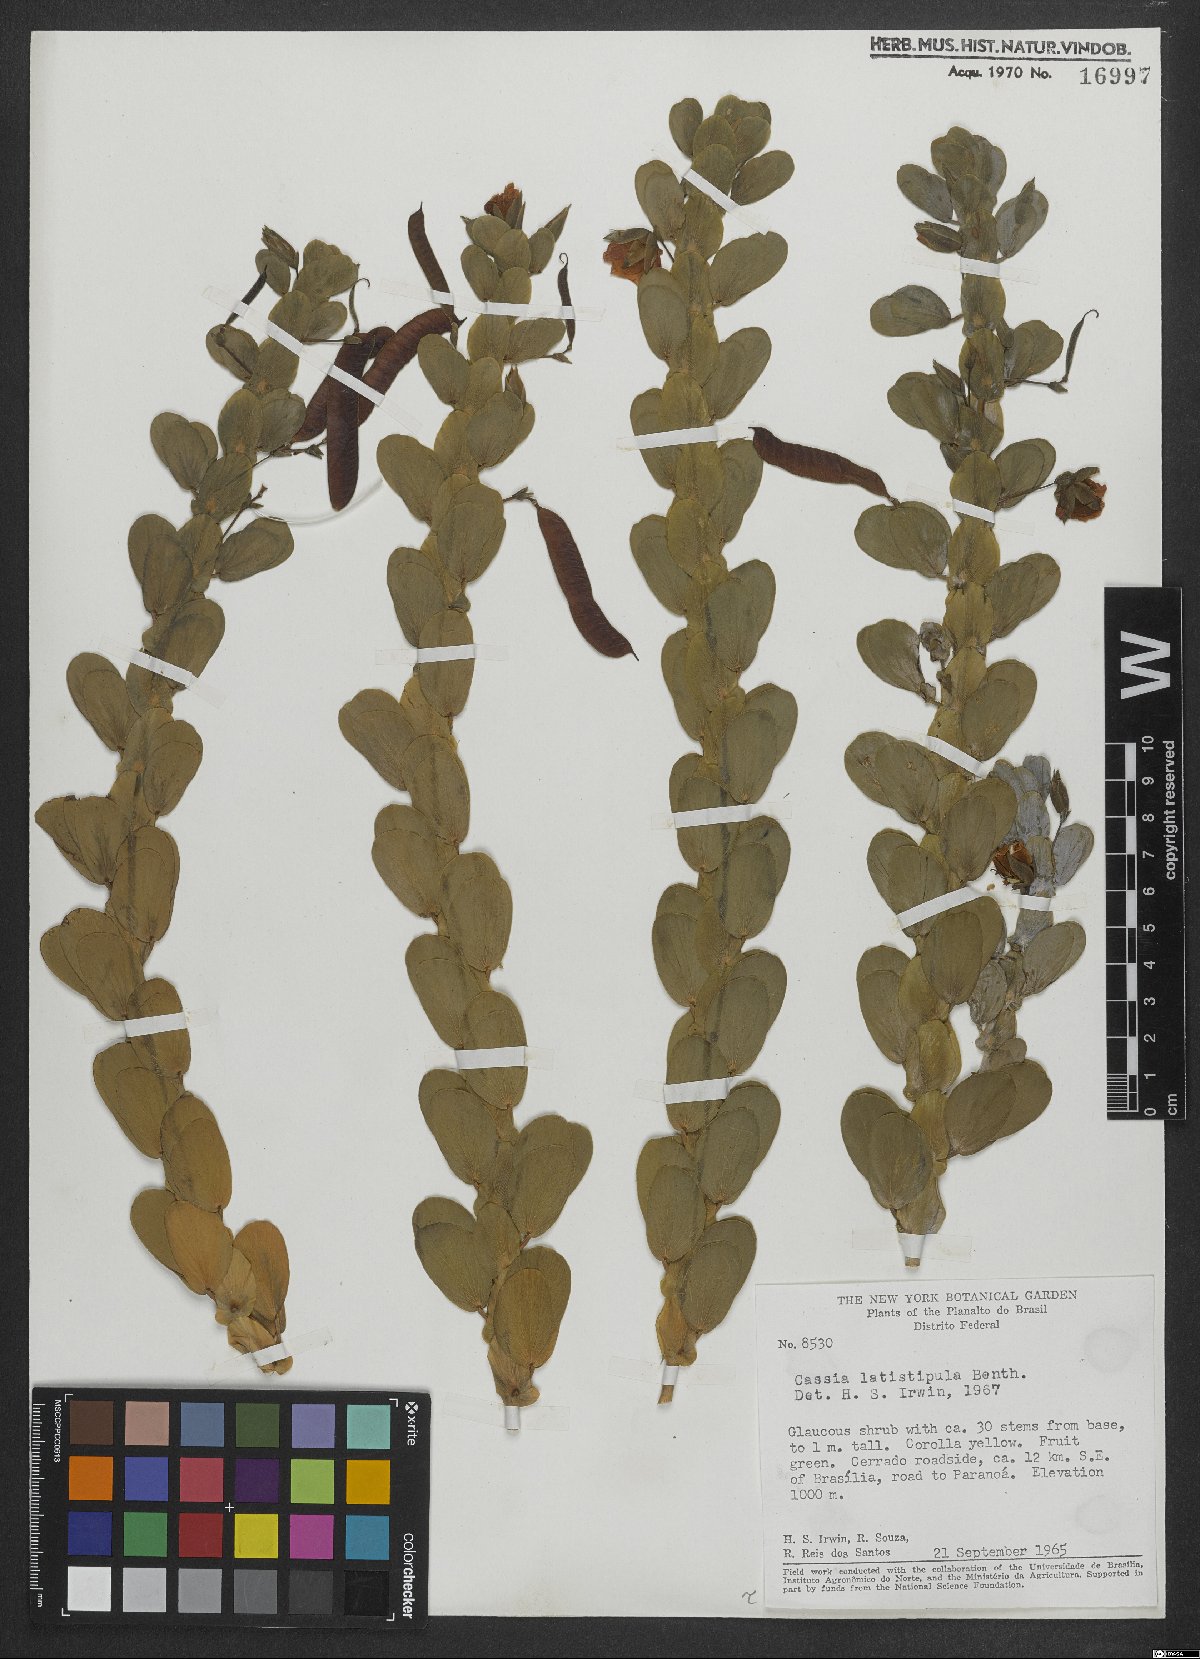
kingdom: Plantae
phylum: Tracheophyta
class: Magnoliopsida
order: Fabales
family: Fabaceae
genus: Chamaecrista
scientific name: Chamaecrista desvauxii
